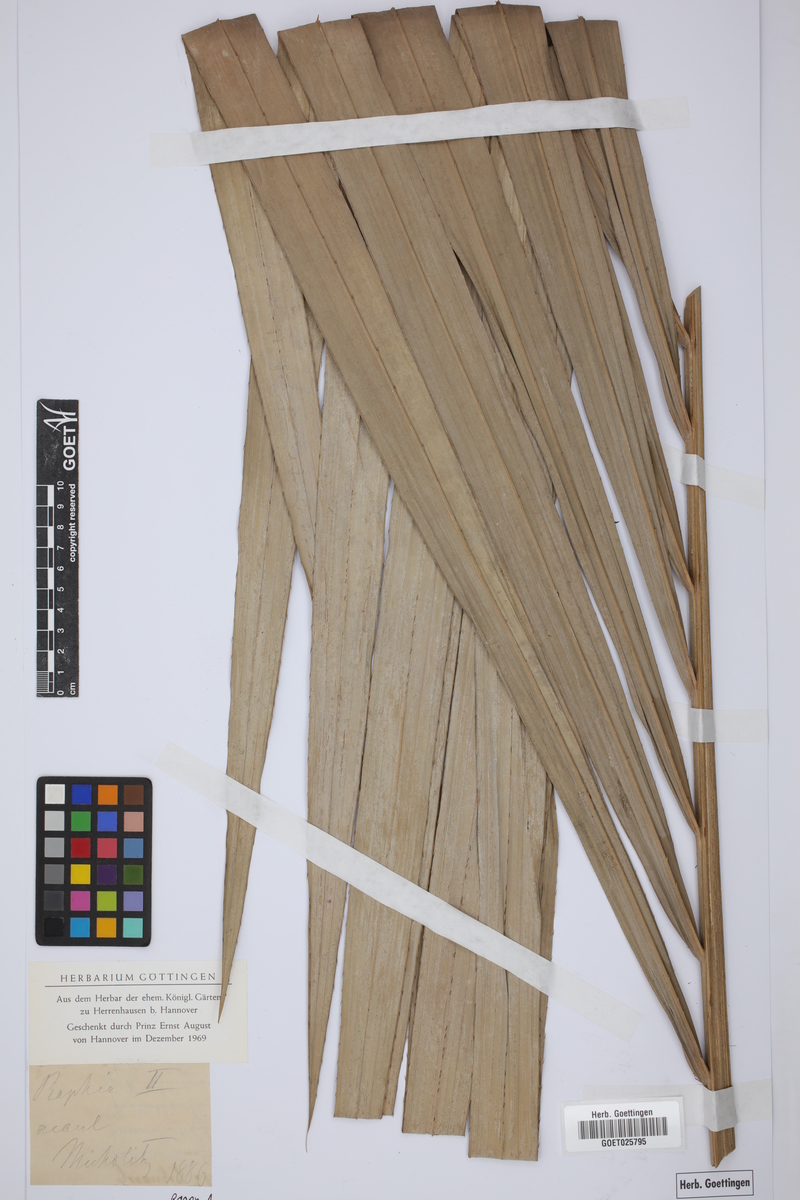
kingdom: Plantae
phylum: Tracheophyta
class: Liliopsida
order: Arecales
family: Arecaceae
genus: Raphia
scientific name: Raphia
